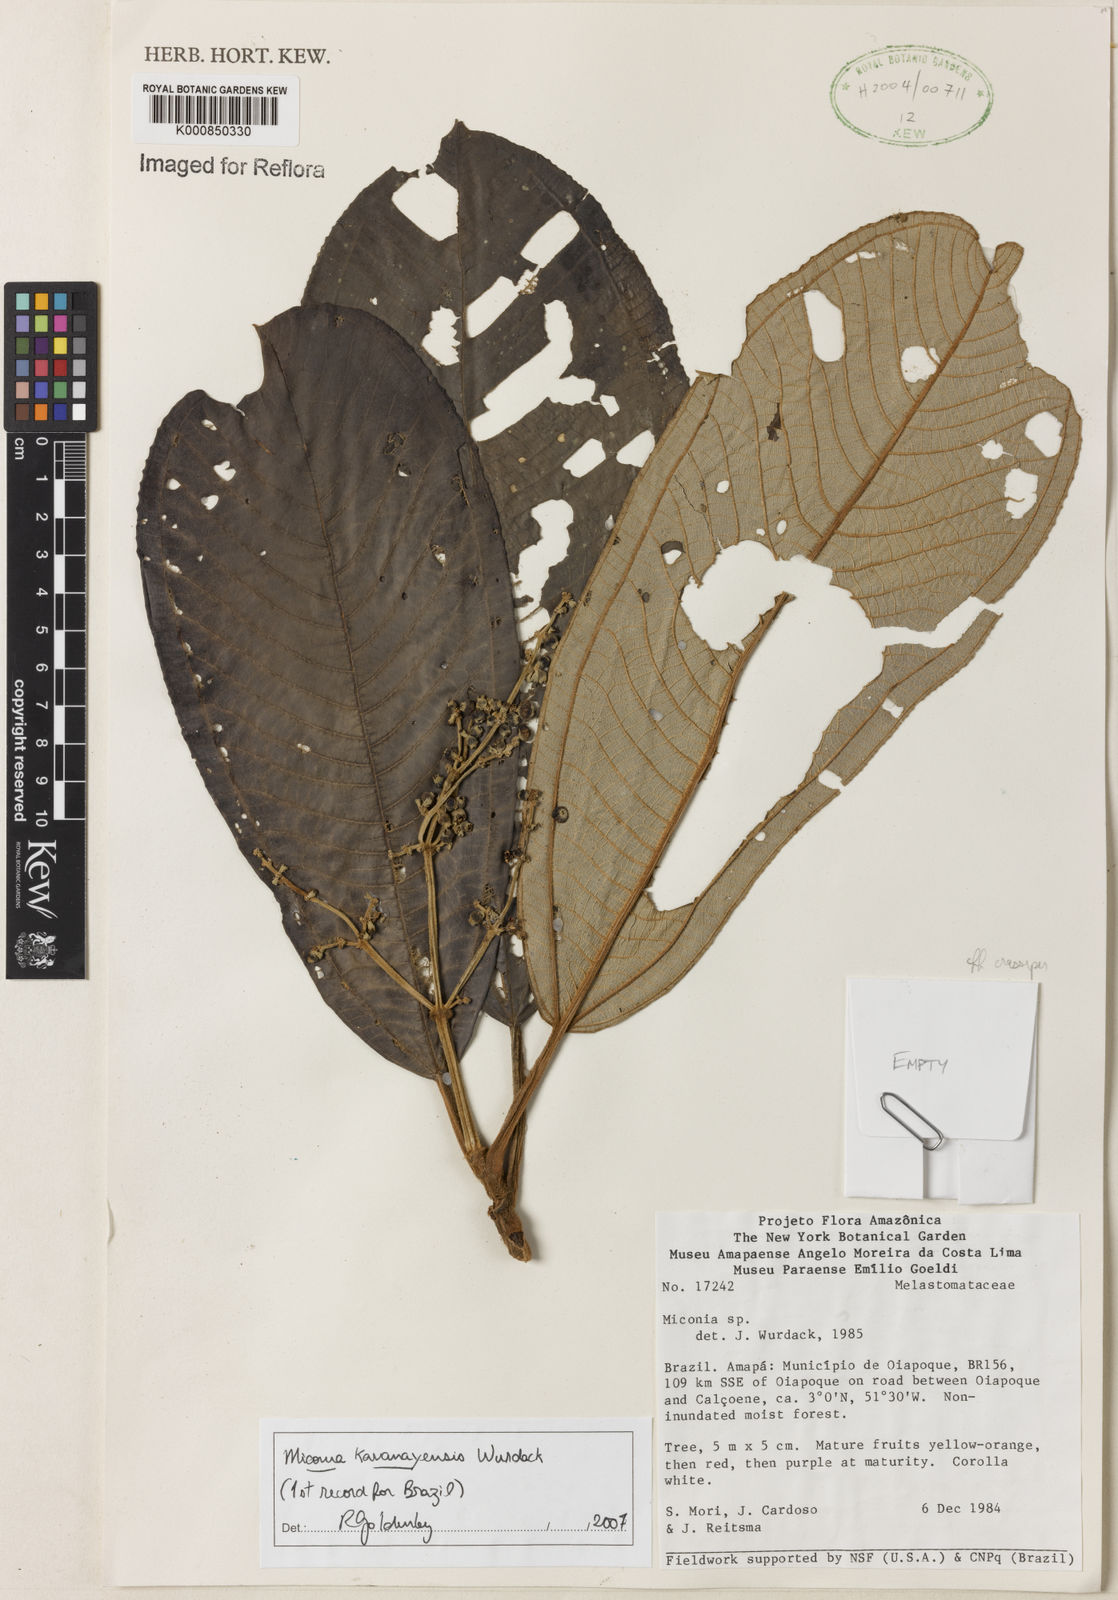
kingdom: Plantae
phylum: Tracheophyta
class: Magnoliopsida
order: Myrtales
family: Melastomataceae
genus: Miconia
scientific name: Miconia kavanayensis
